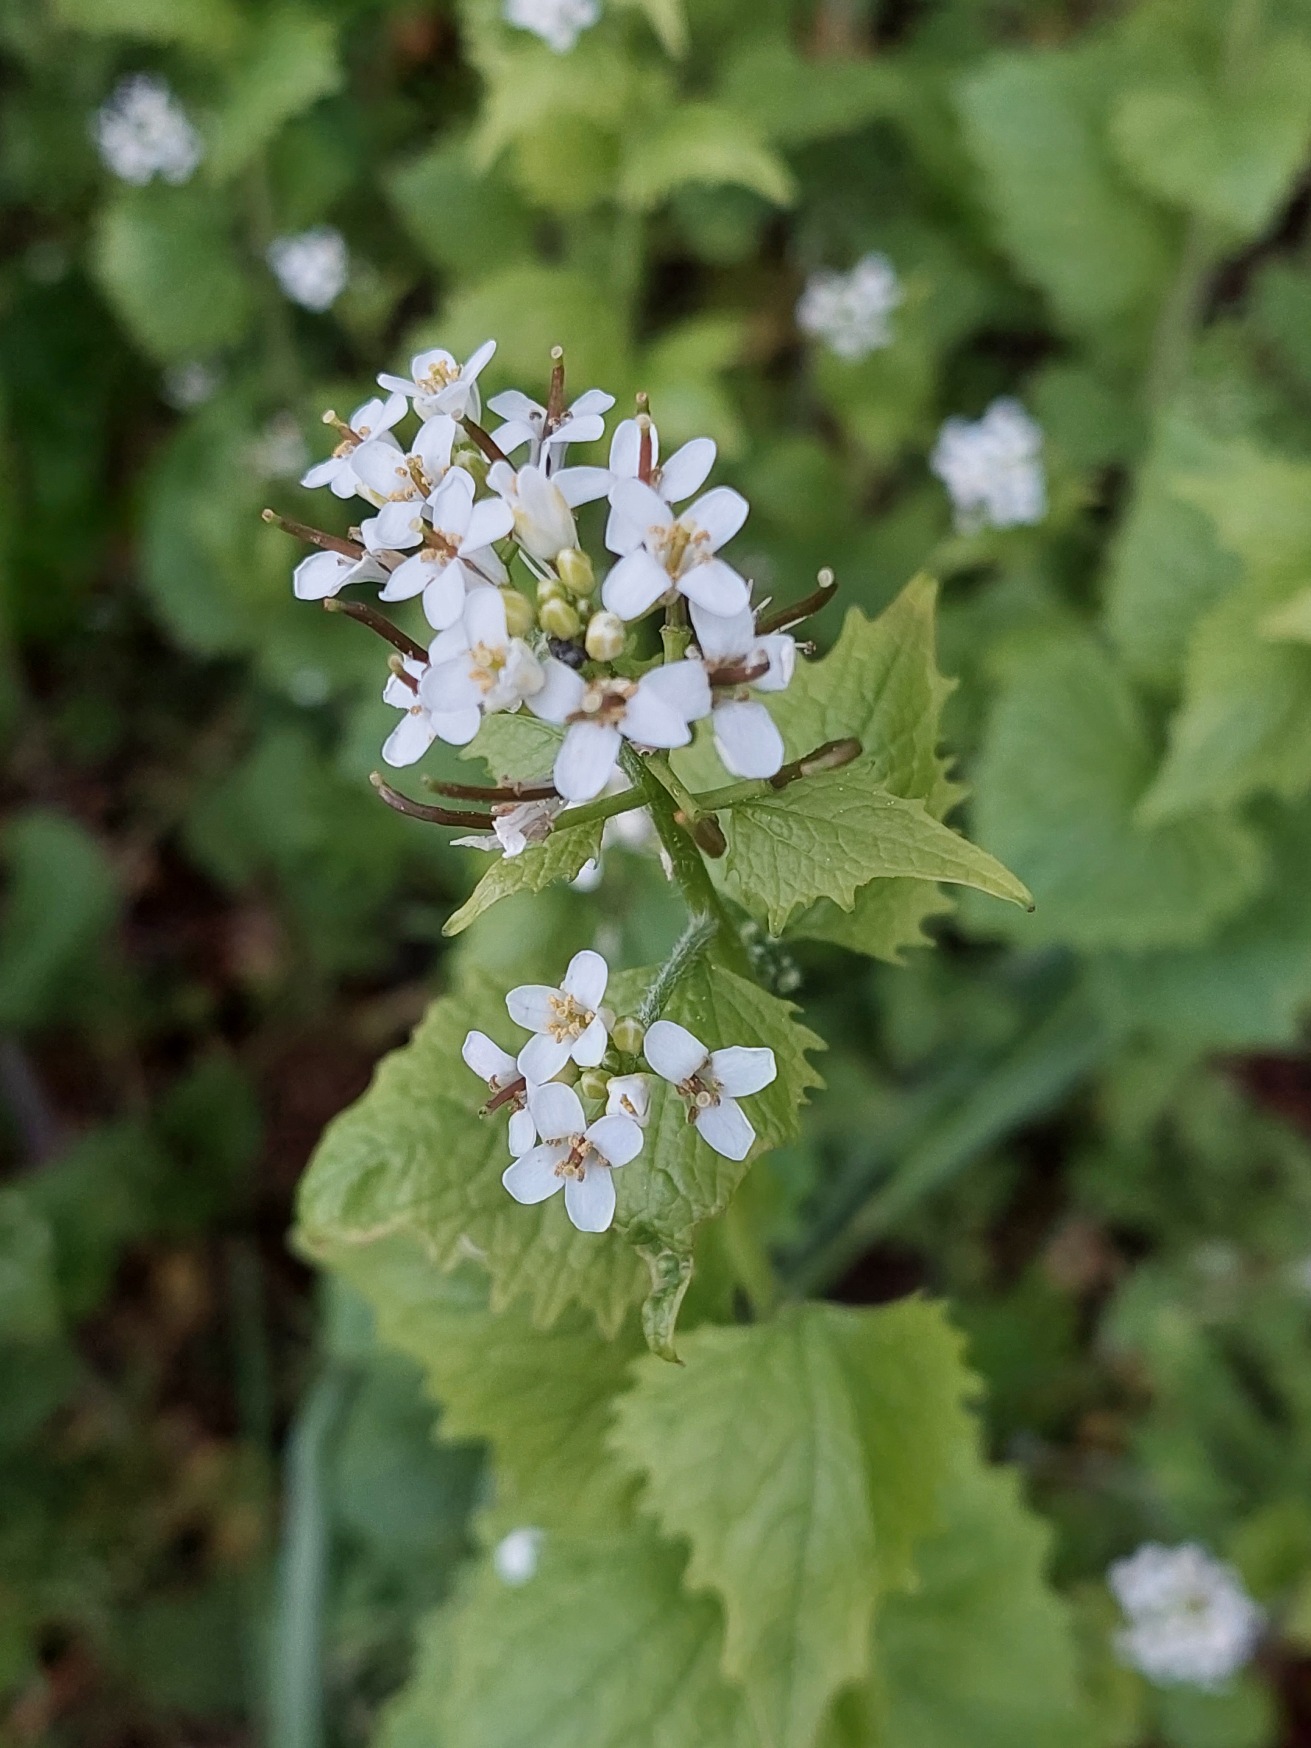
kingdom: Plantae
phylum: Tracheophyta
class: Magnoliopsida
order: Brassicales
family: Brassicaceae
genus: Alliaria
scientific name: Alliaria petiolata
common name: Løgkarse
